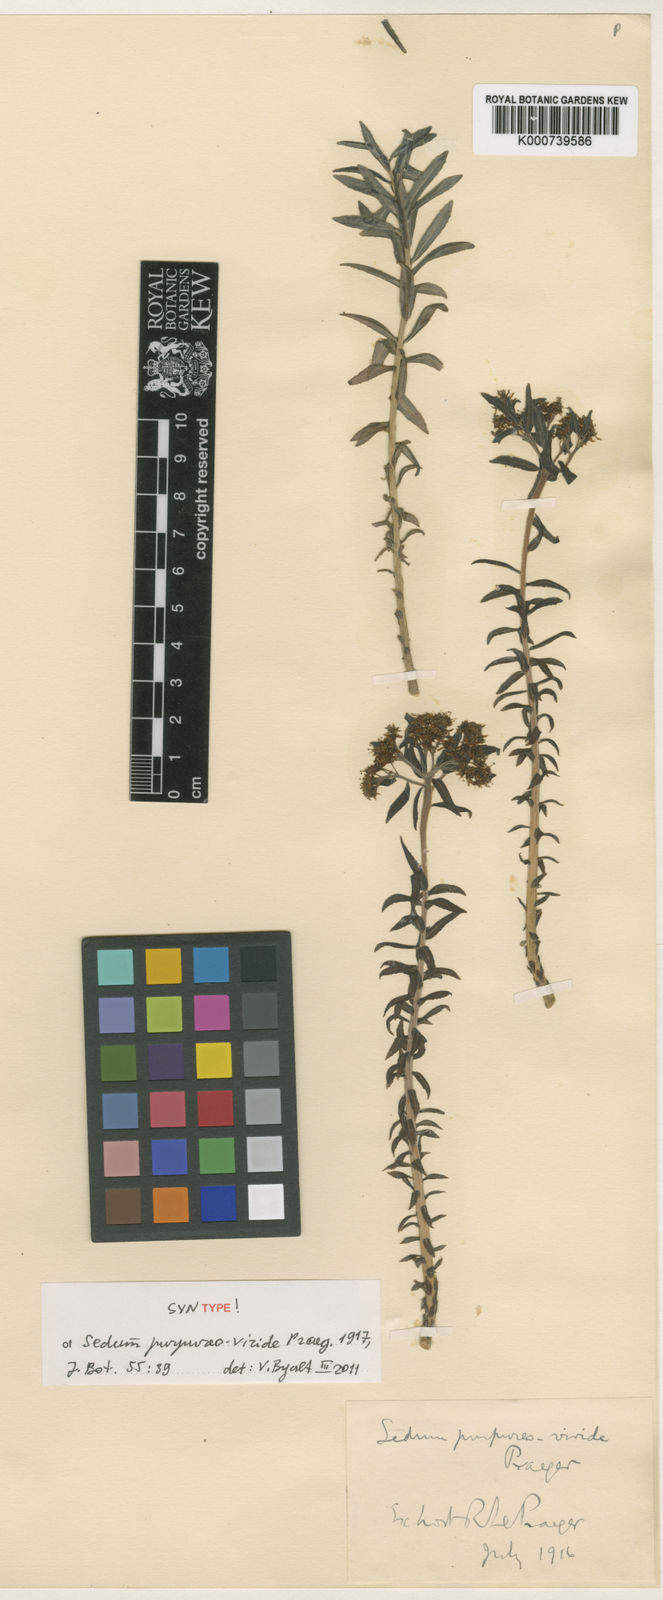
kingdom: Plantae
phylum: Tracheophyta
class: Magnoliopsida
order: Saxifragales
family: Crassulaceae
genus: Rhodiola
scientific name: Rhodiola purpureoviridis
